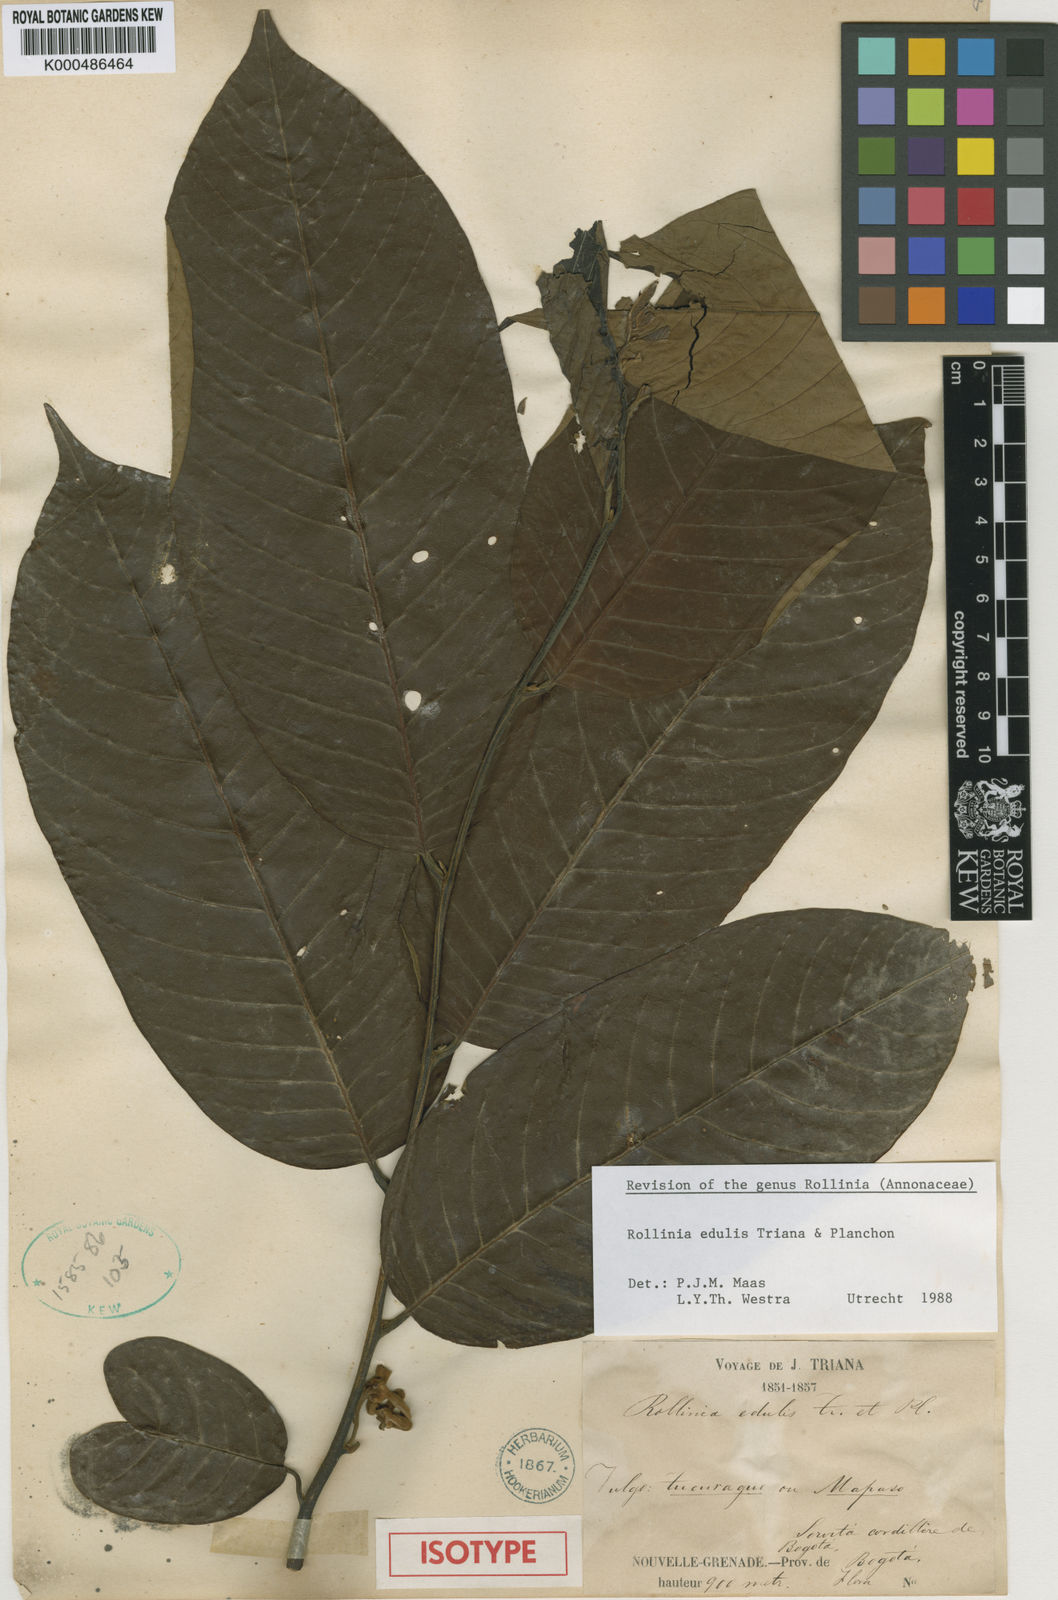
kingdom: Plantae
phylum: Tracheophyta
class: Magnoliopsida
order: Magnoliales
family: Annonaceae
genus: Annona
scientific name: Annona edulis
